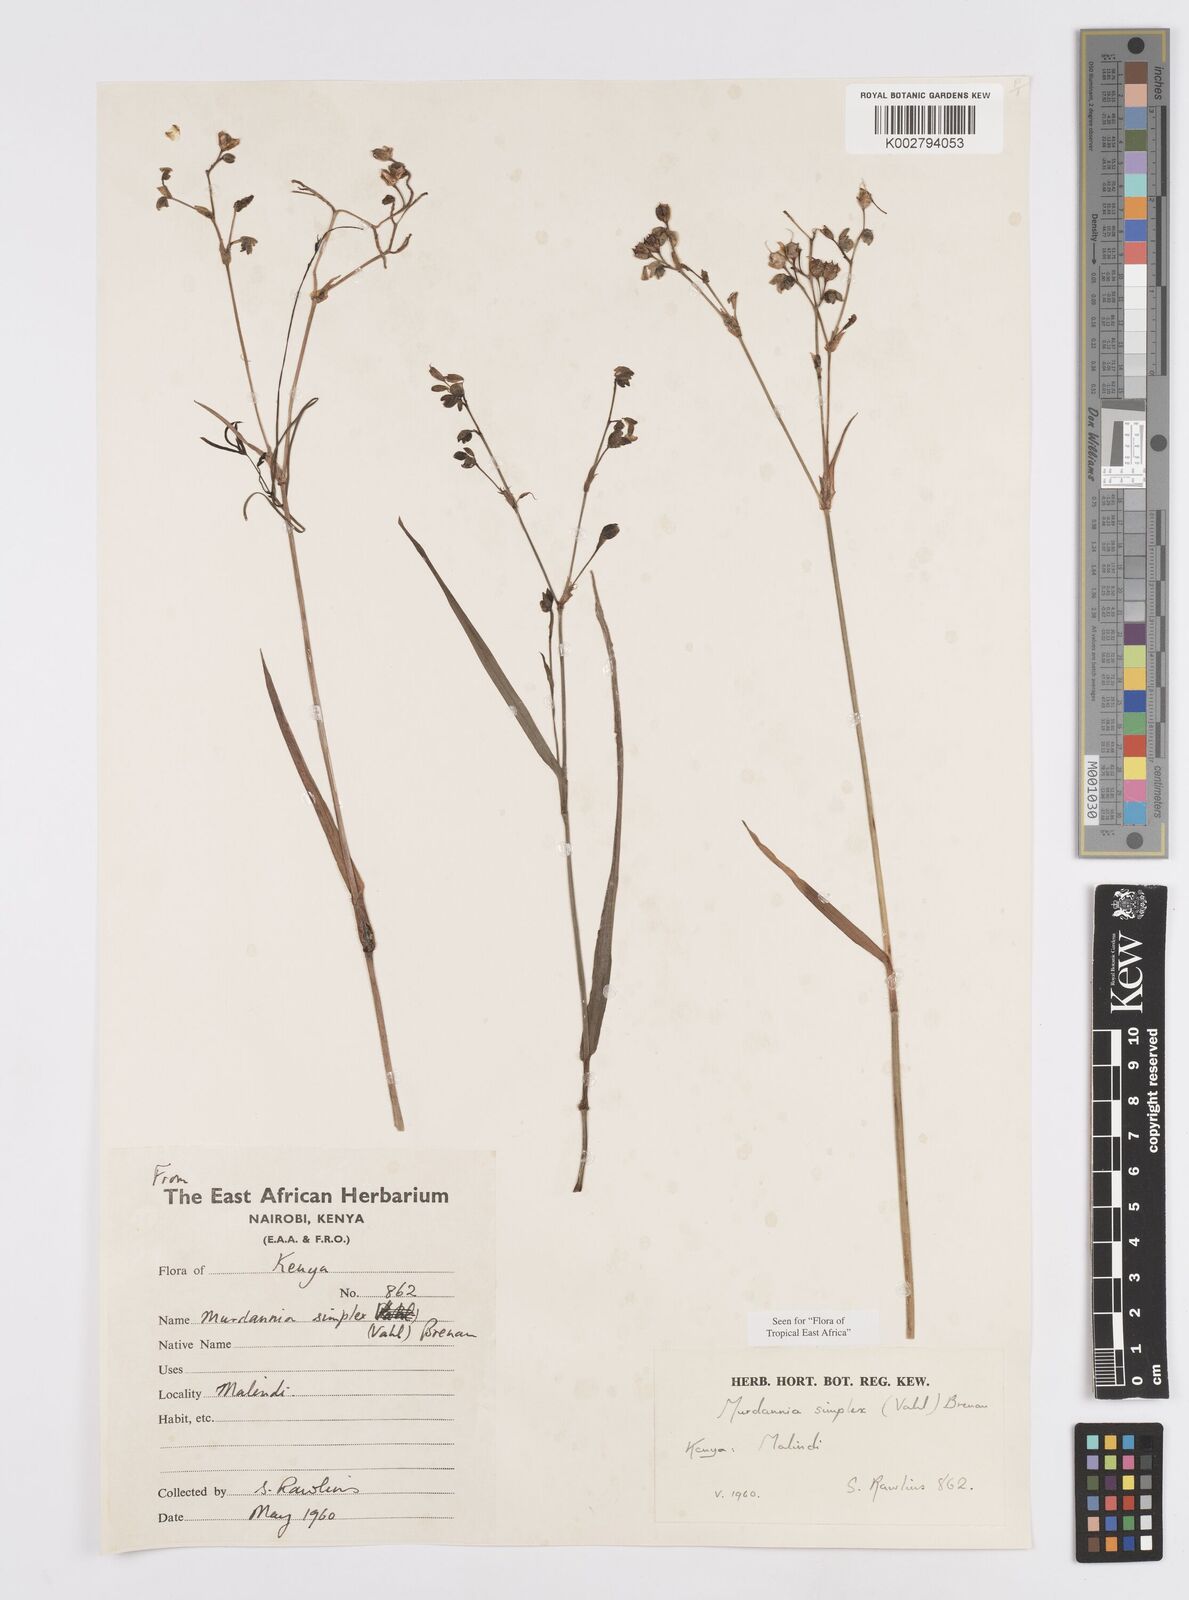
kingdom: Plantae
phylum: Tracheophyta
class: Liliopsida
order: Commelinales
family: Commelinaceae
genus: Murdannia
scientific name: Murdannia simplex
